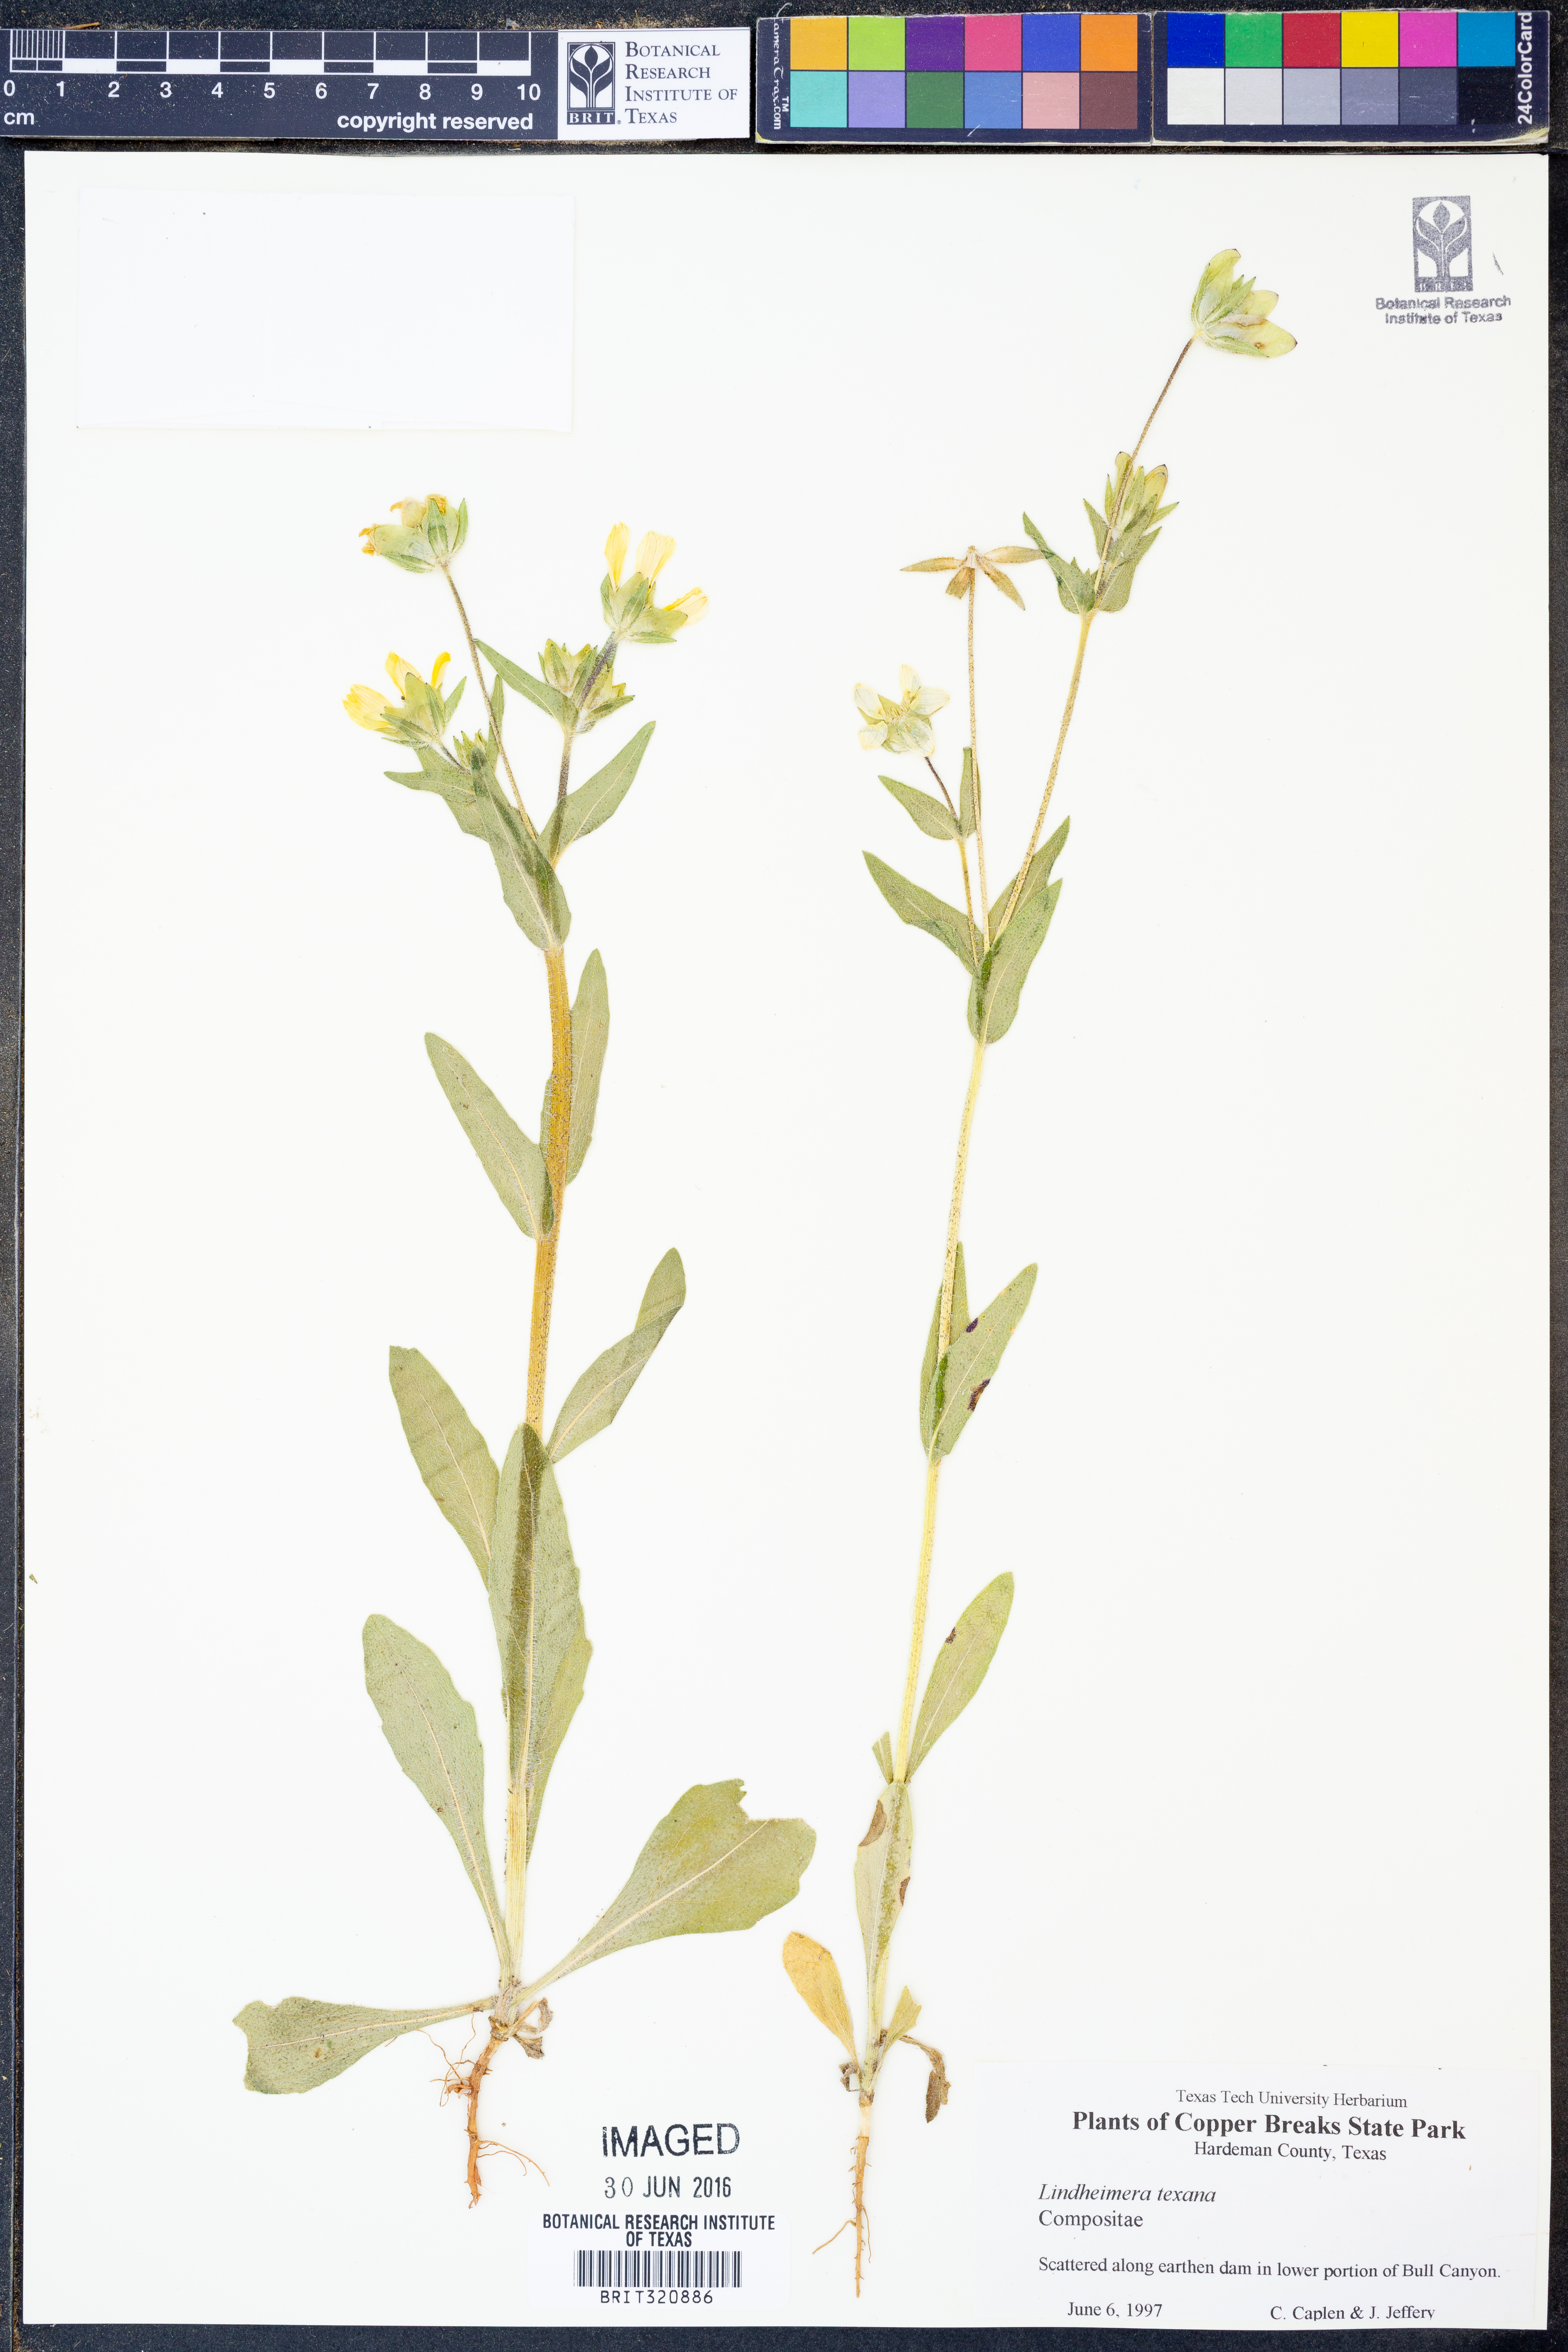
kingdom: Plantae
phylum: Tracheophyta
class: Magnoliopsida
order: Asterales
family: Asteraceae
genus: Lindheimera
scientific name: Lindheimera texana
